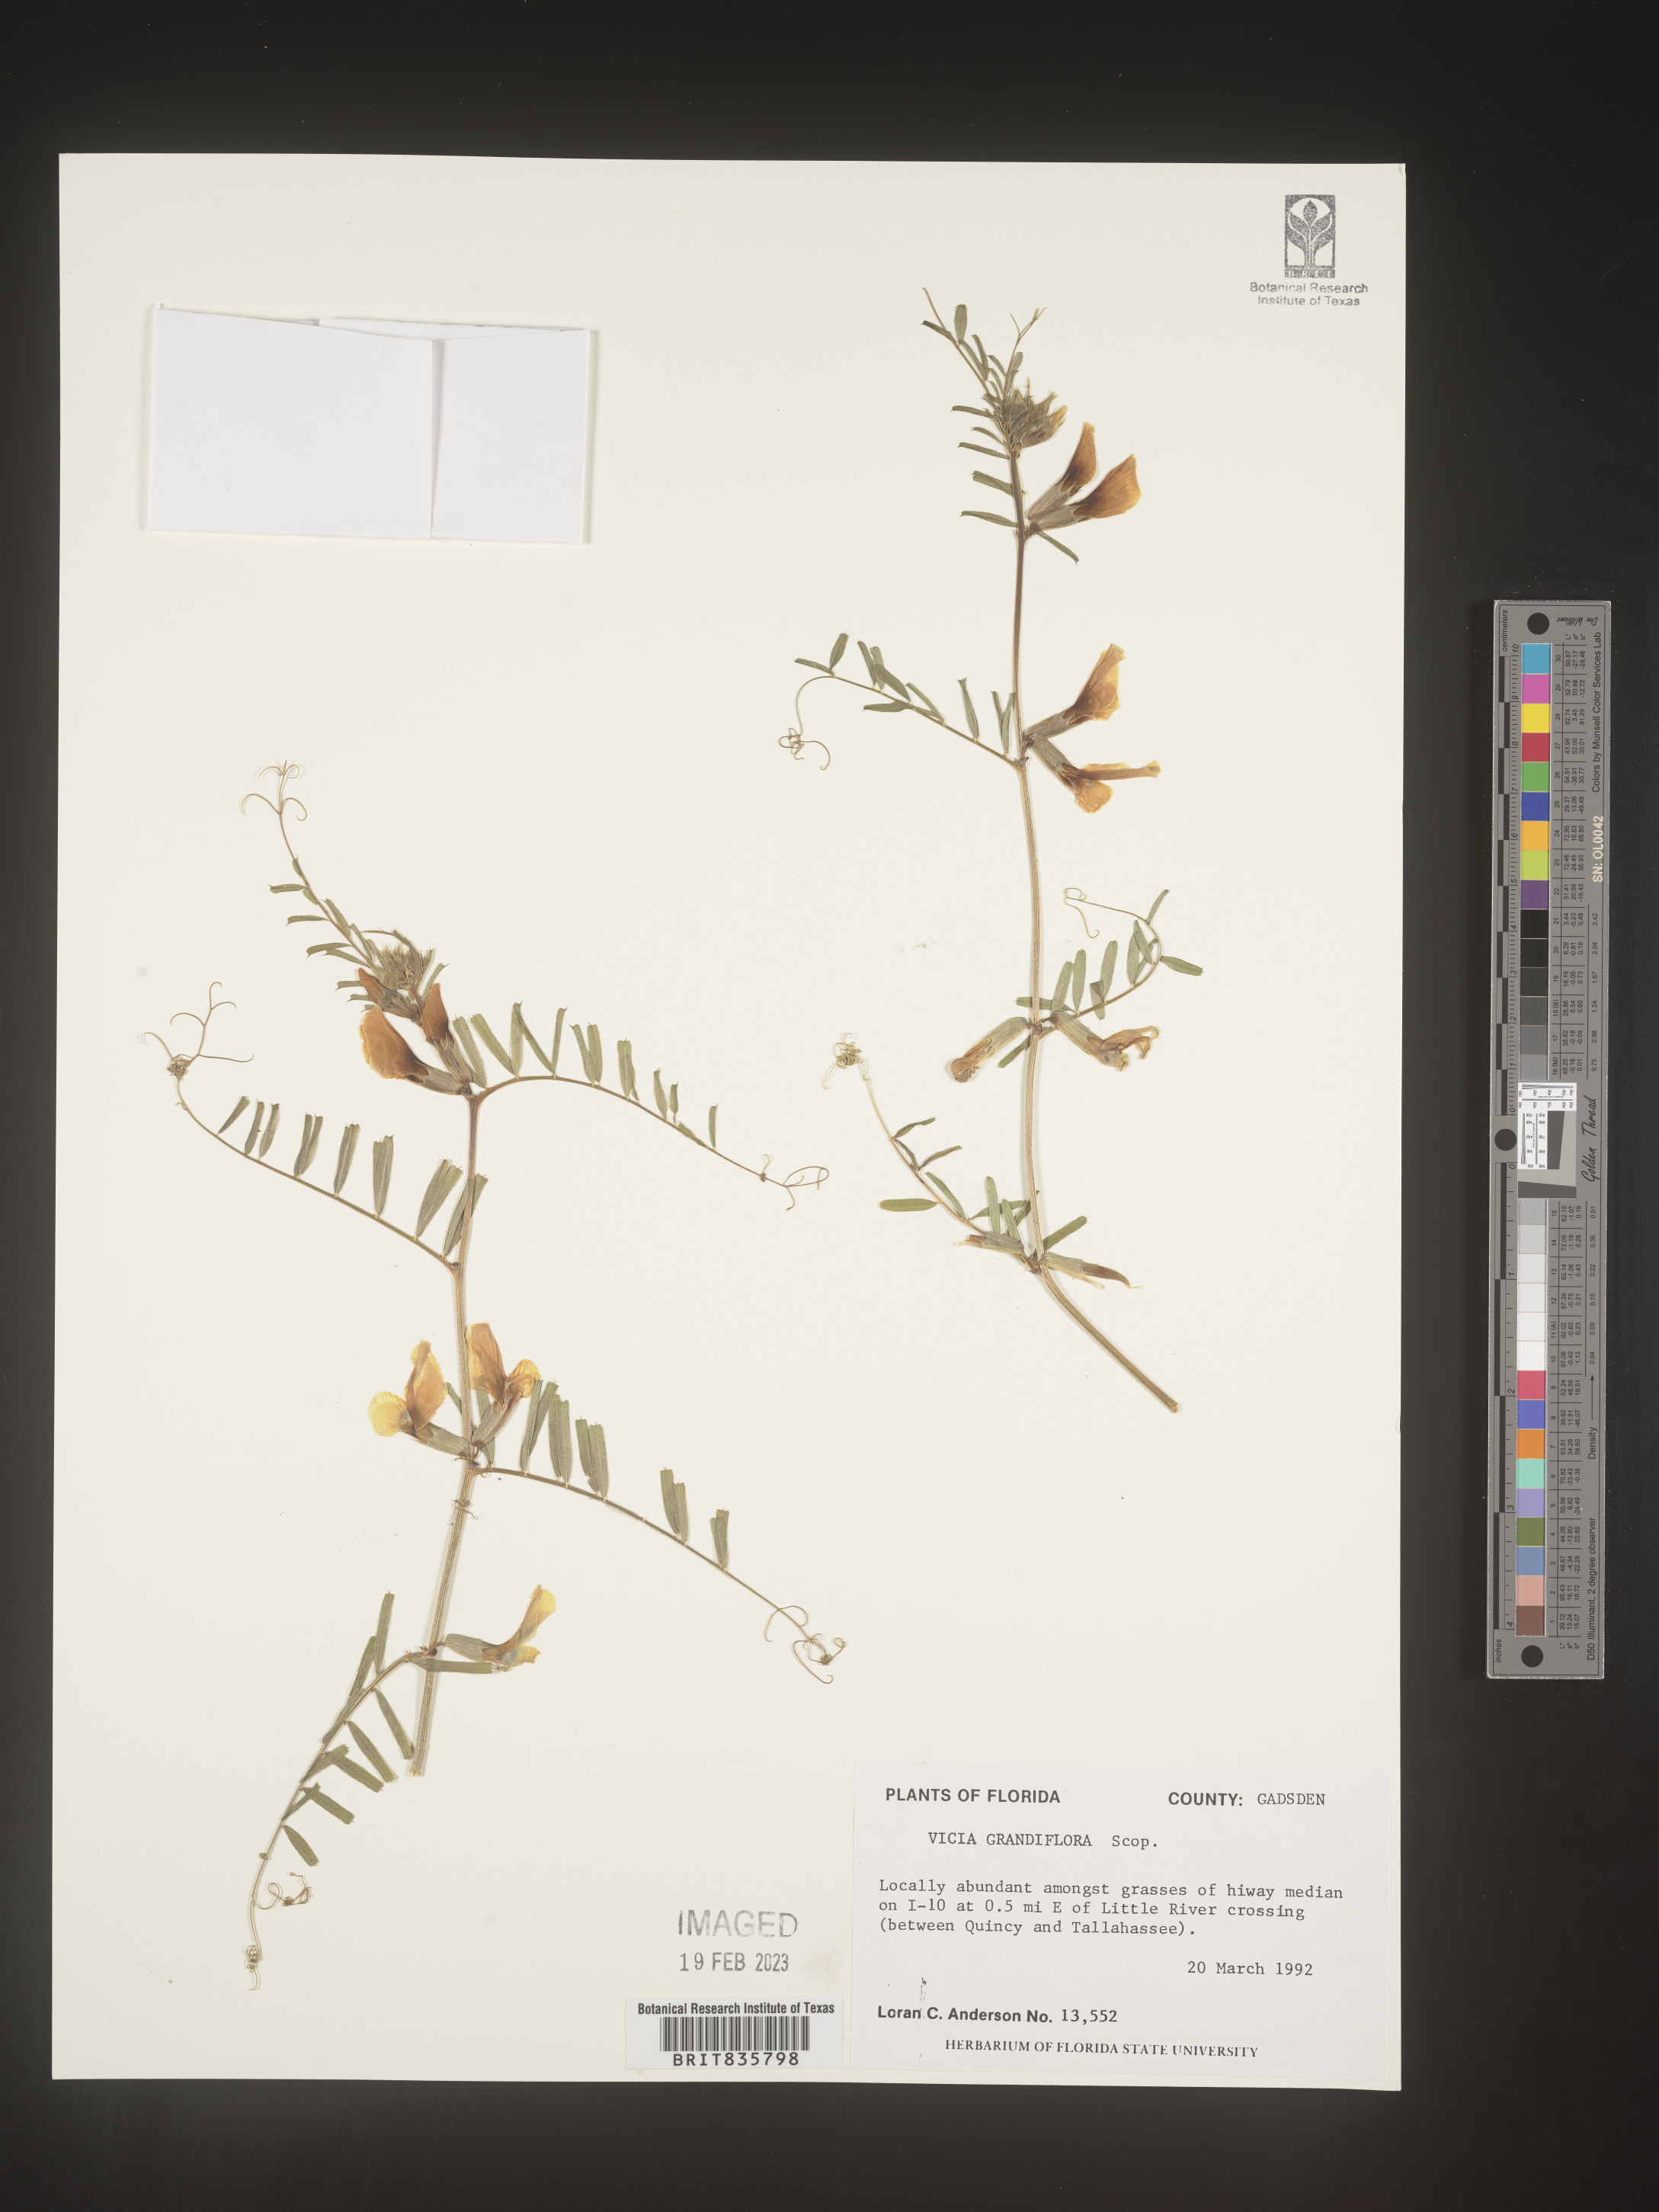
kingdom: Plantae
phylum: Tracheophyta
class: Magnoliopsida
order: Fabales
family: Fabaceae
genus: Vicia
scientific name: Vicia grandiflora
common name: Large yellow vetch
